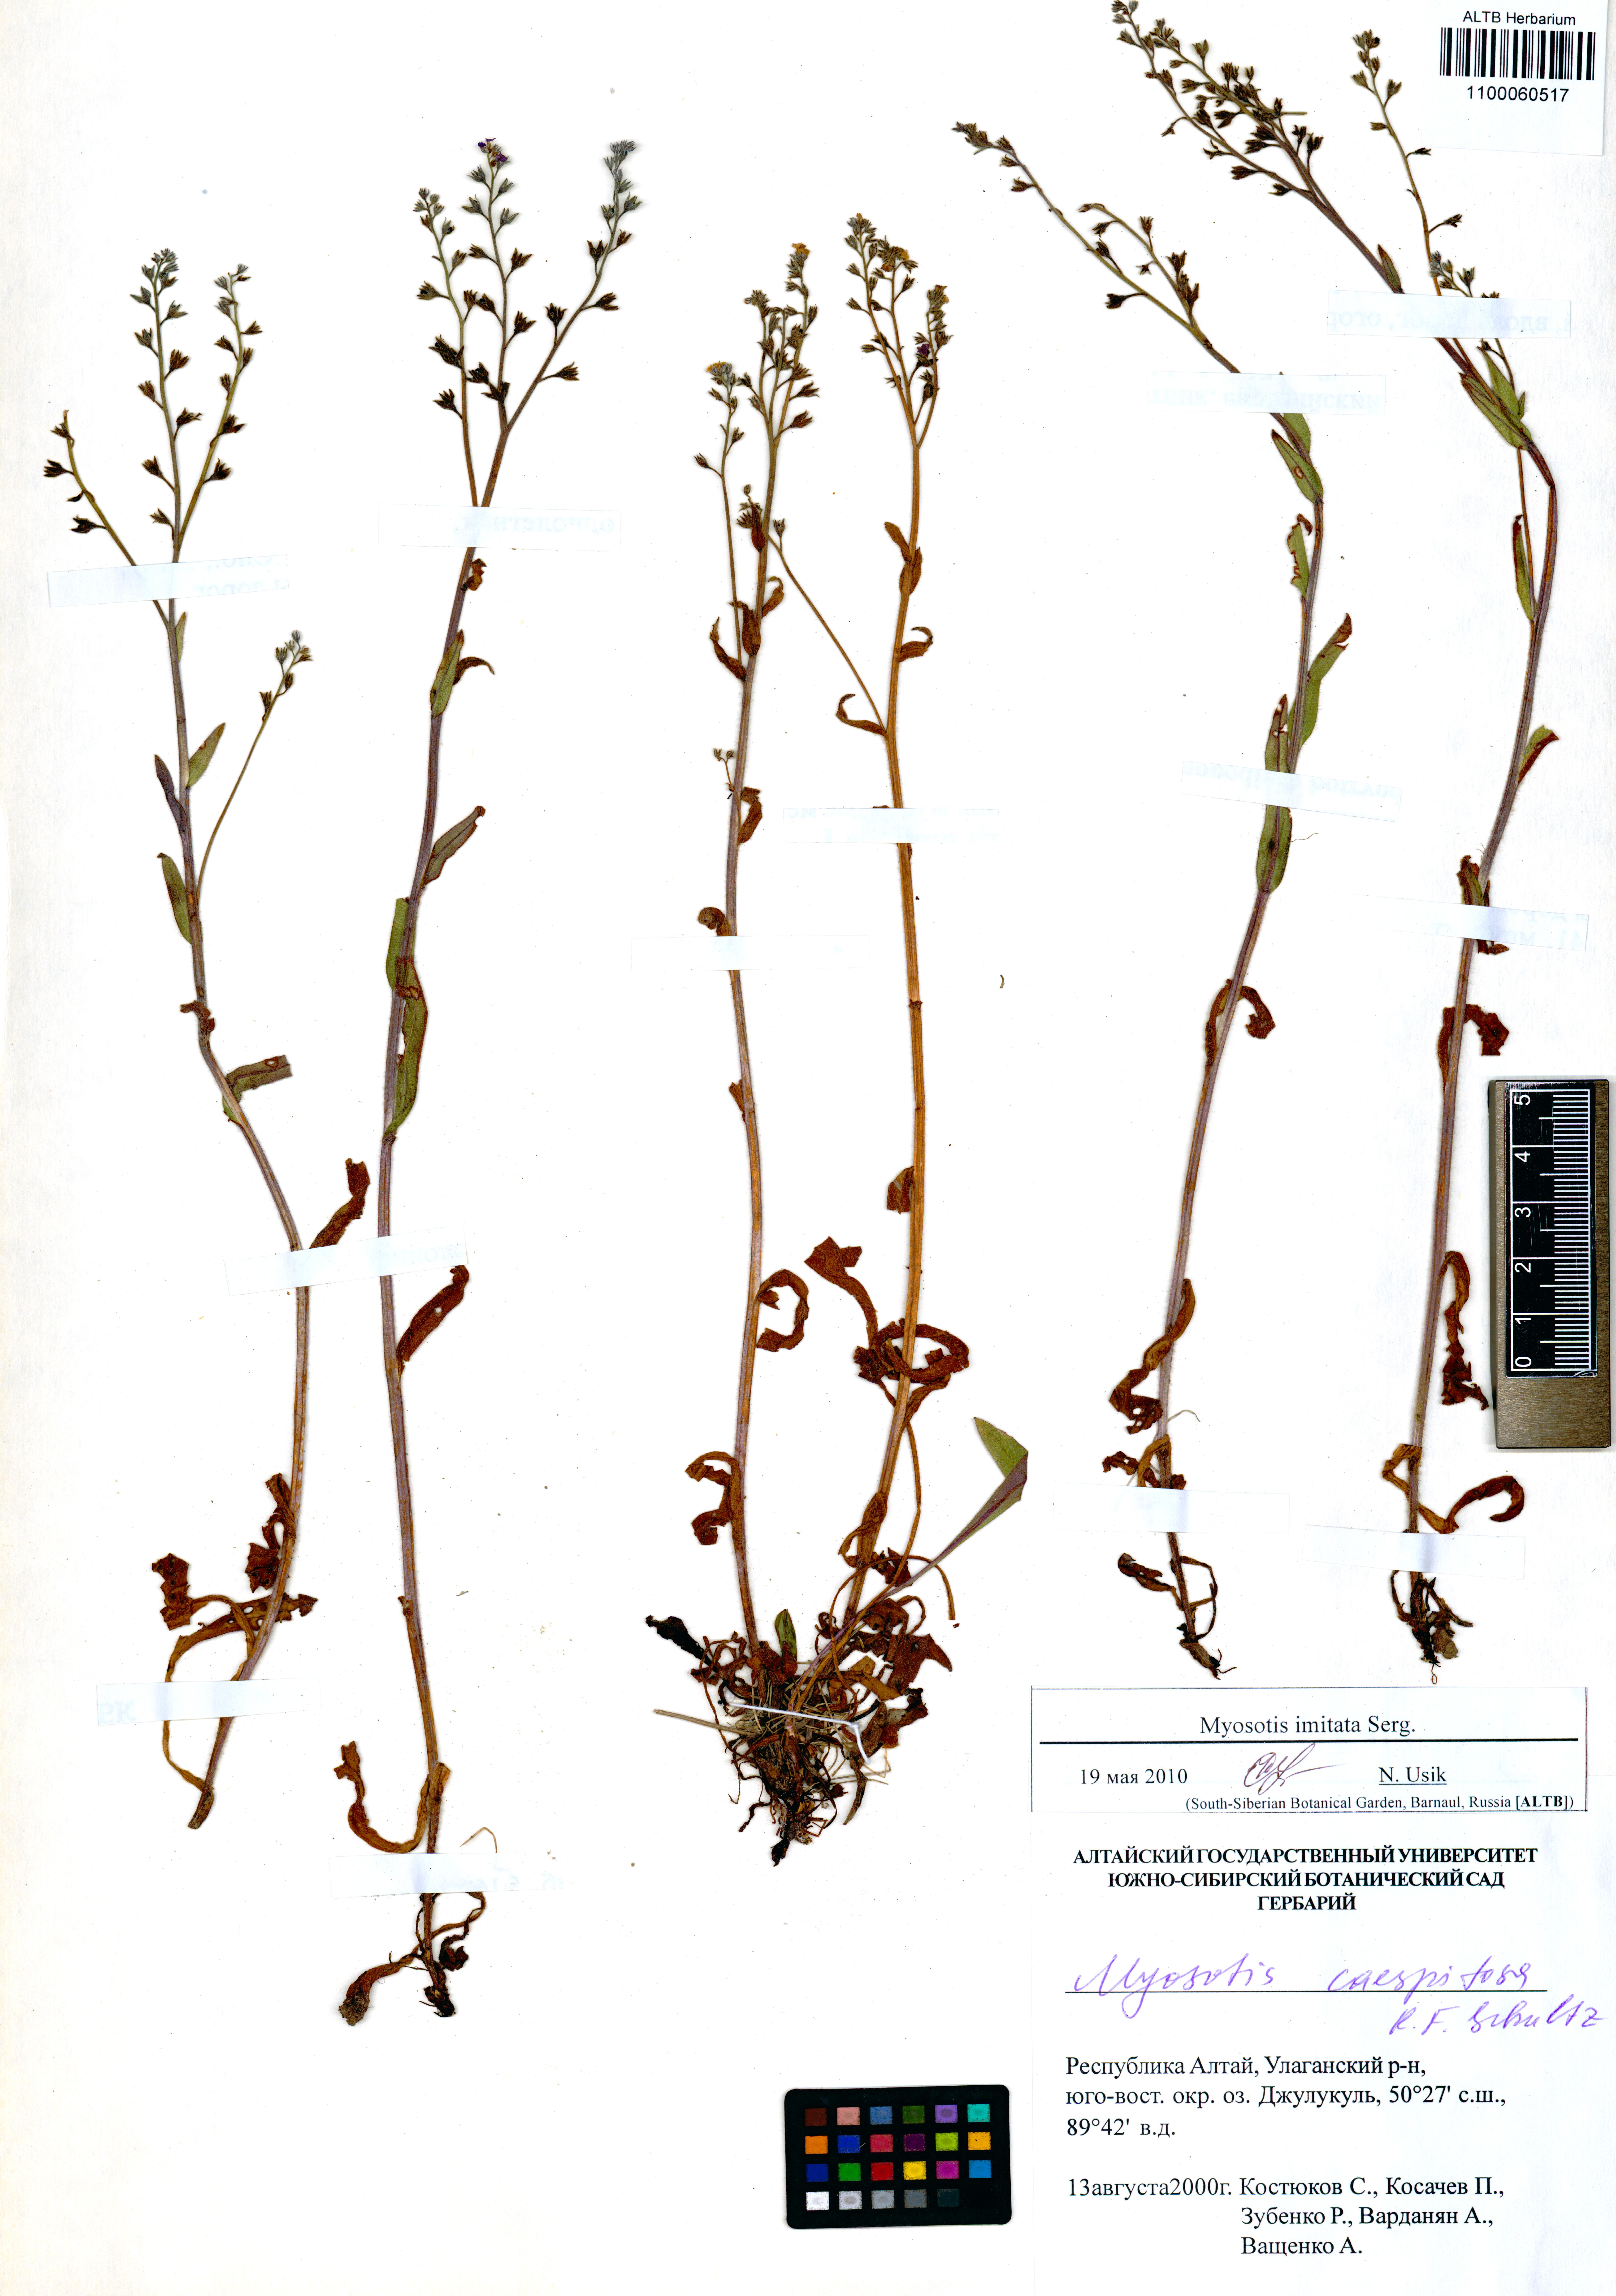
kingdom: Plantae
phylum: Tracheophyta
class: Magnoliopsida
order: Boraginales
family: Boraginaceae
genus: Myosotis
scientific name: Myosotis imitata
